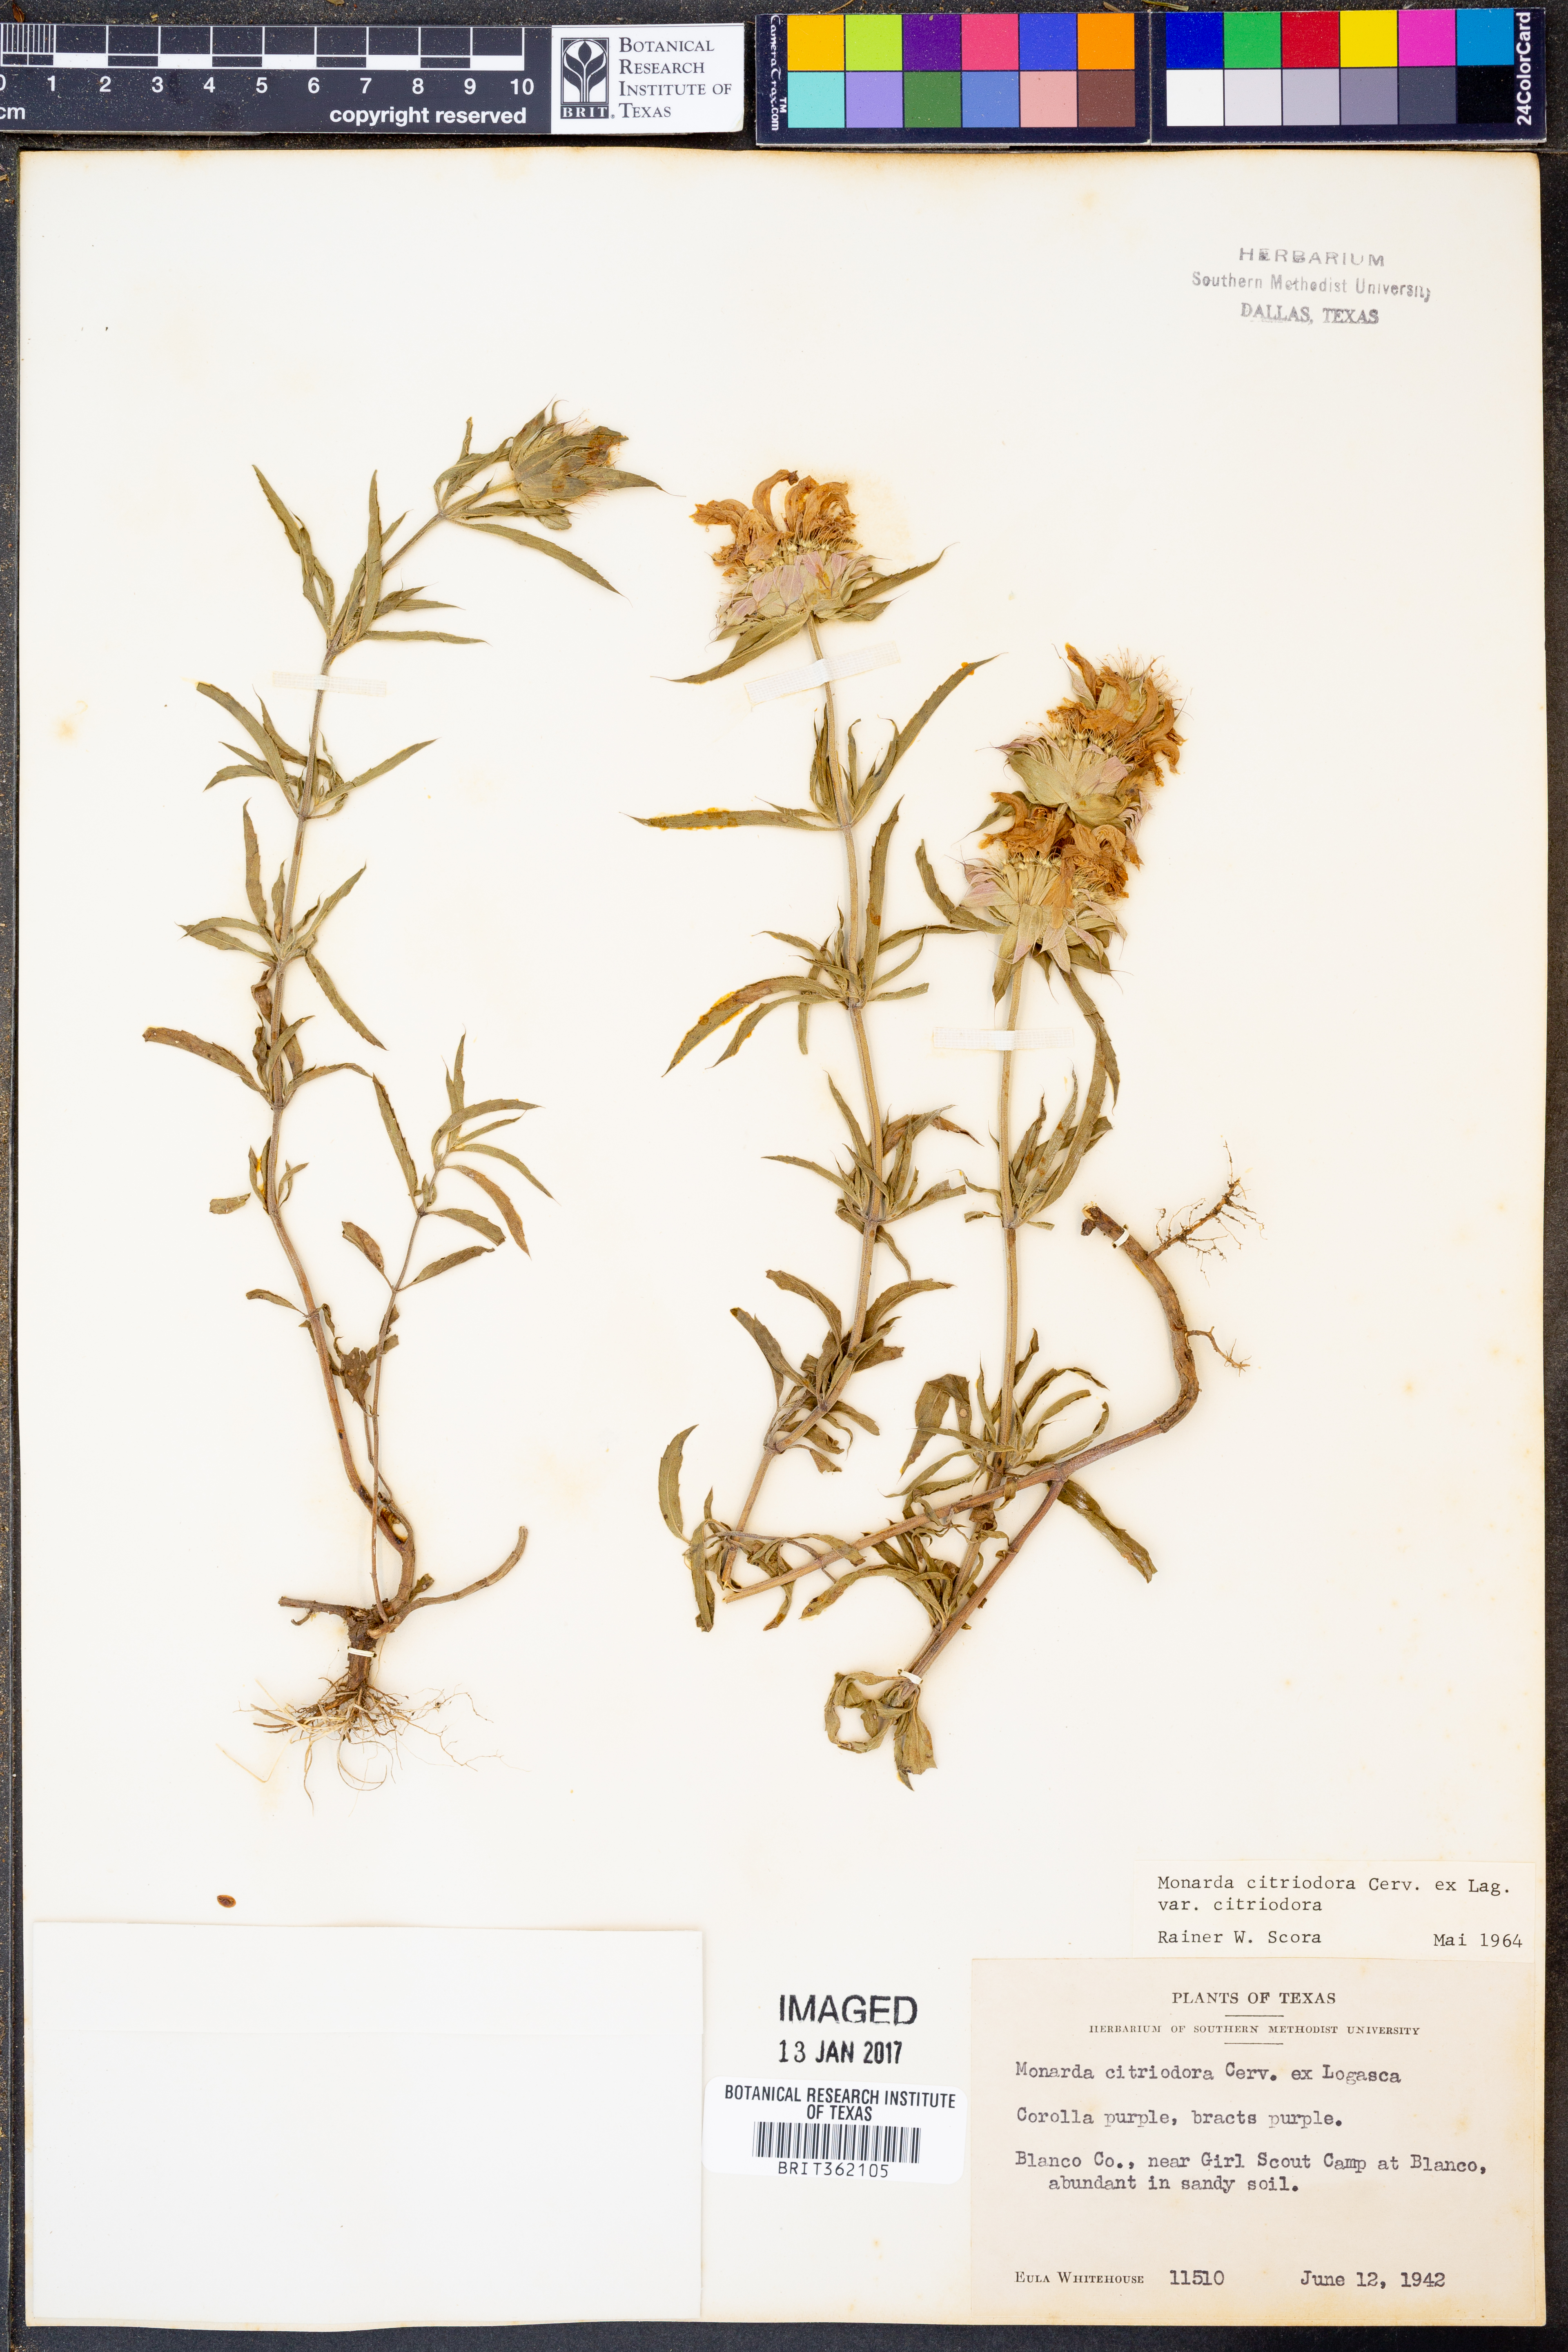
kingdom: Plantae
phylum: Tracheophyta
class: Magnoliopsida
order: Lamiales
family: Lamiaceae
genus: Monarda
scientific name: Monarda citriodora
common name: Lemon beebalm
